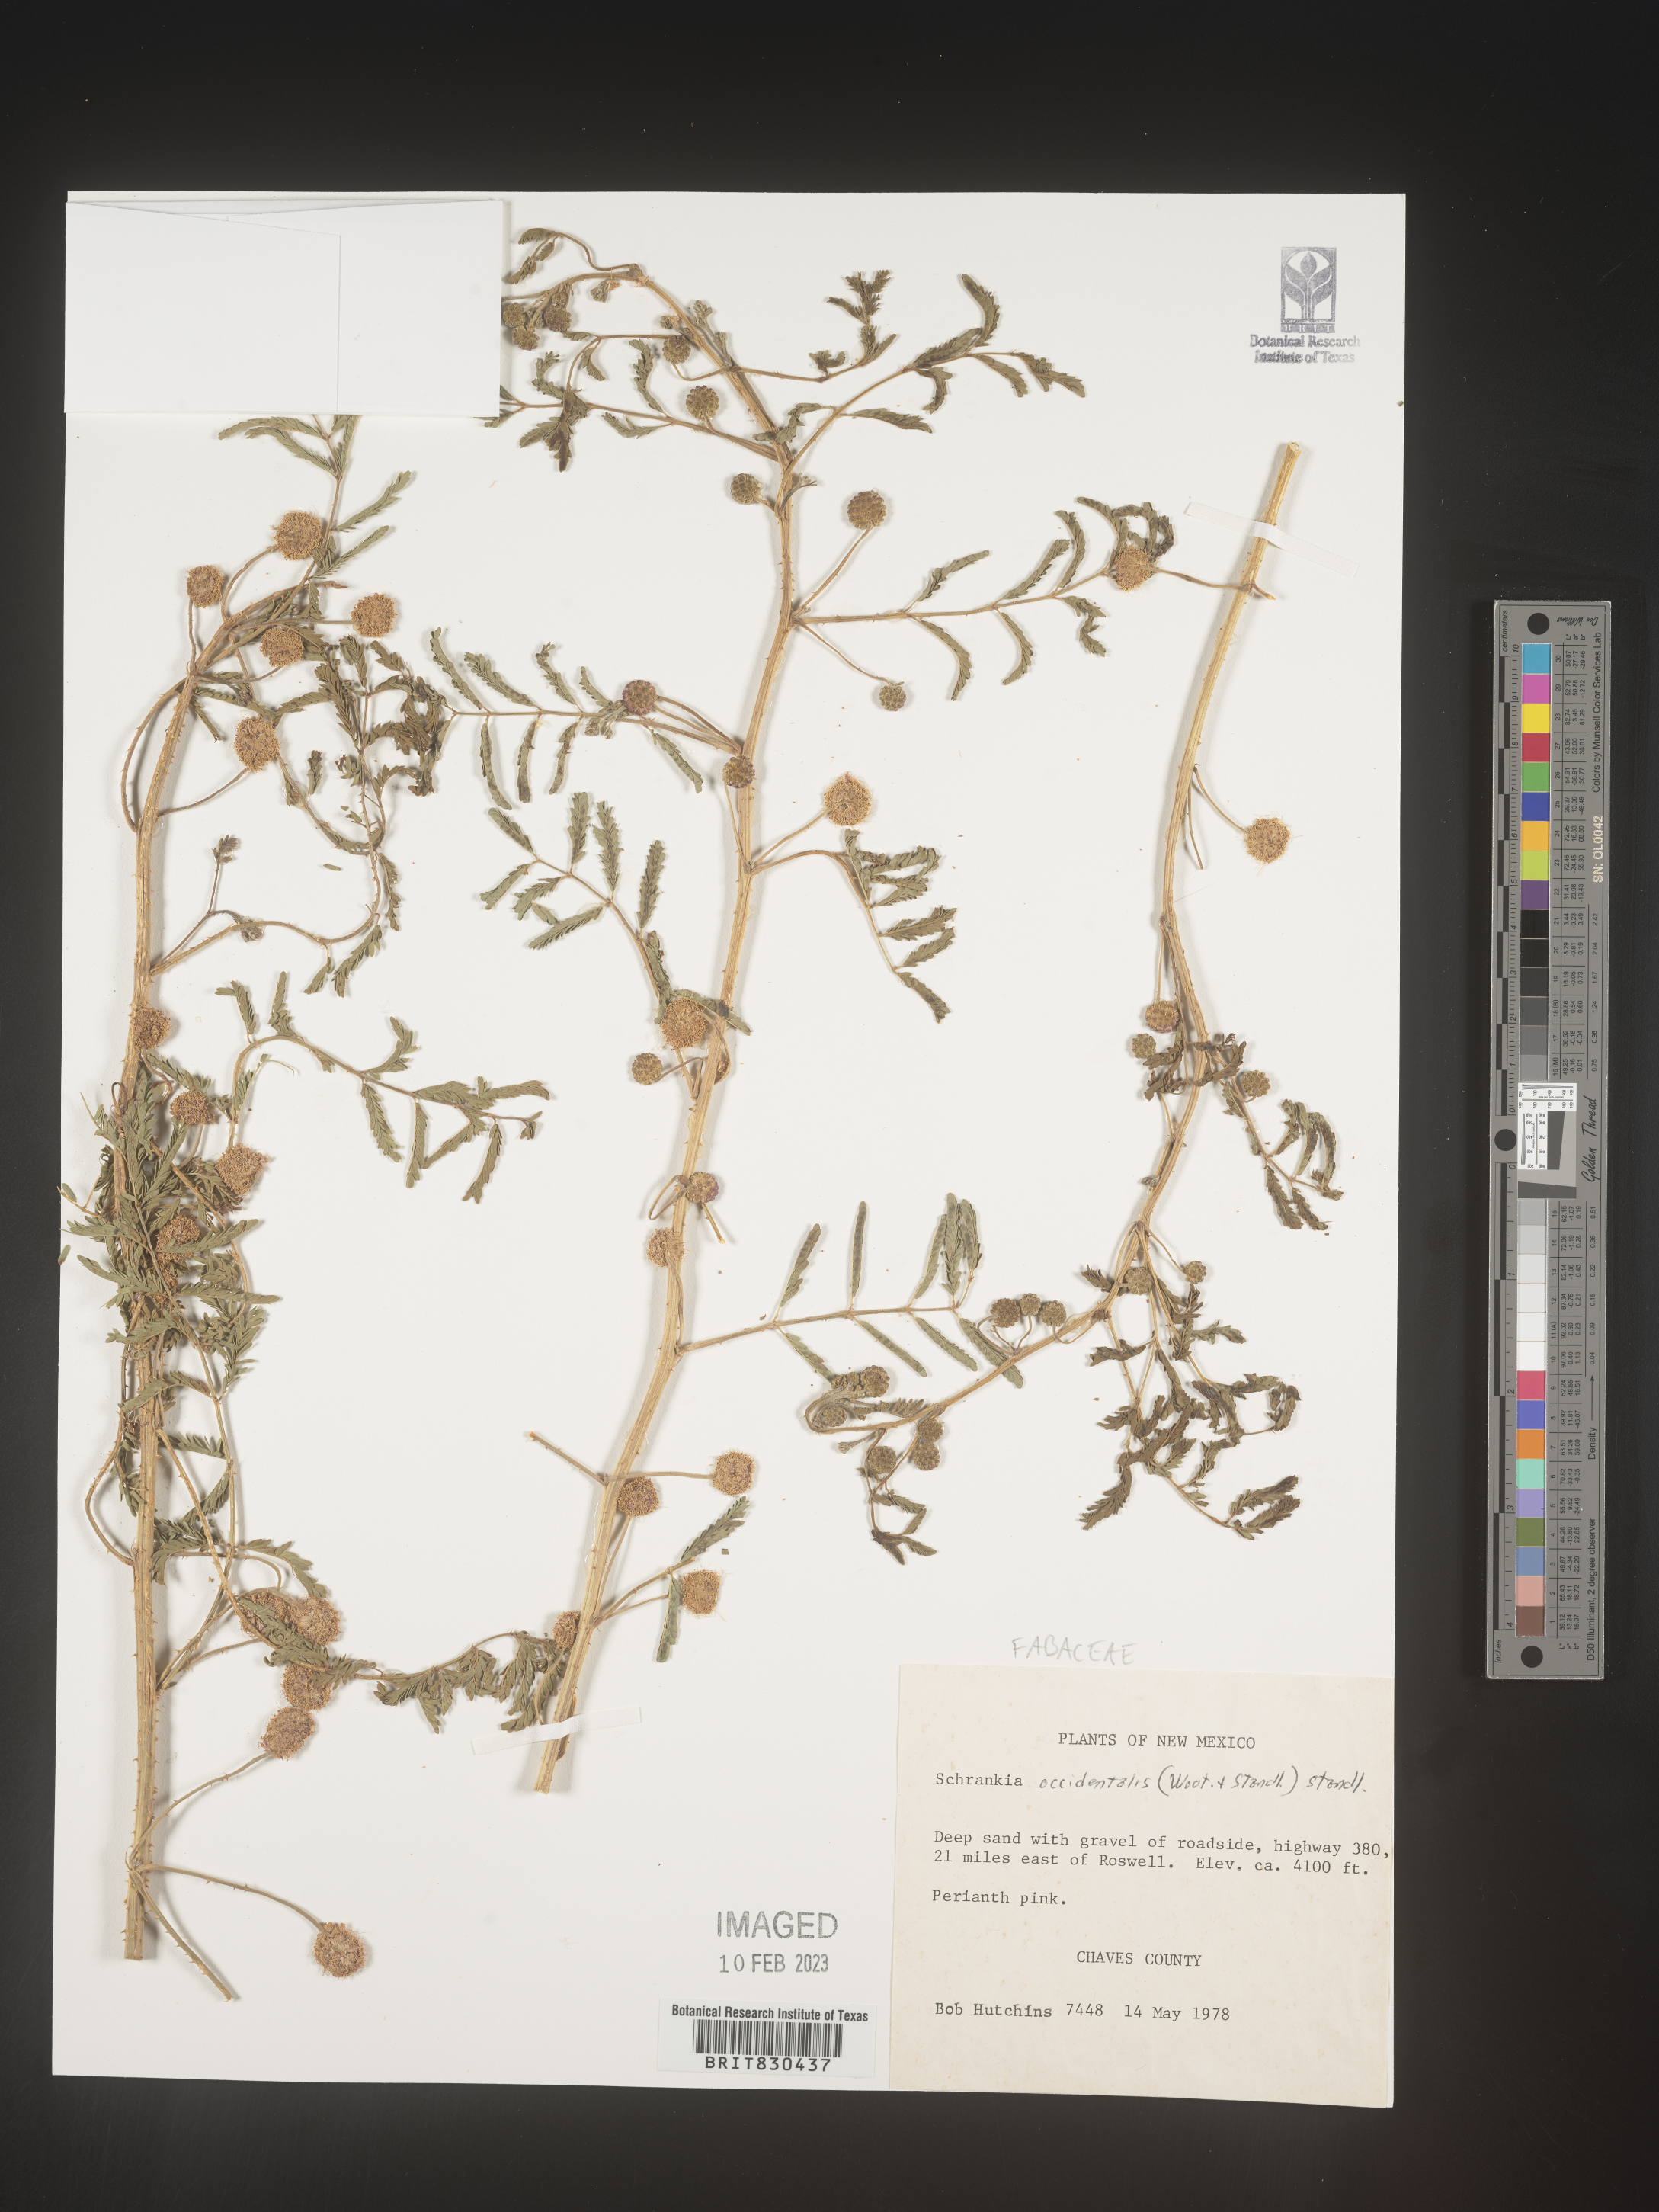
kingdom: Plantae
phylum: Tracheophyta
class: Magnoliopsida
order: Fabales
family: Fabaceae
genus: Mimosa
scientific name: Mimosa
